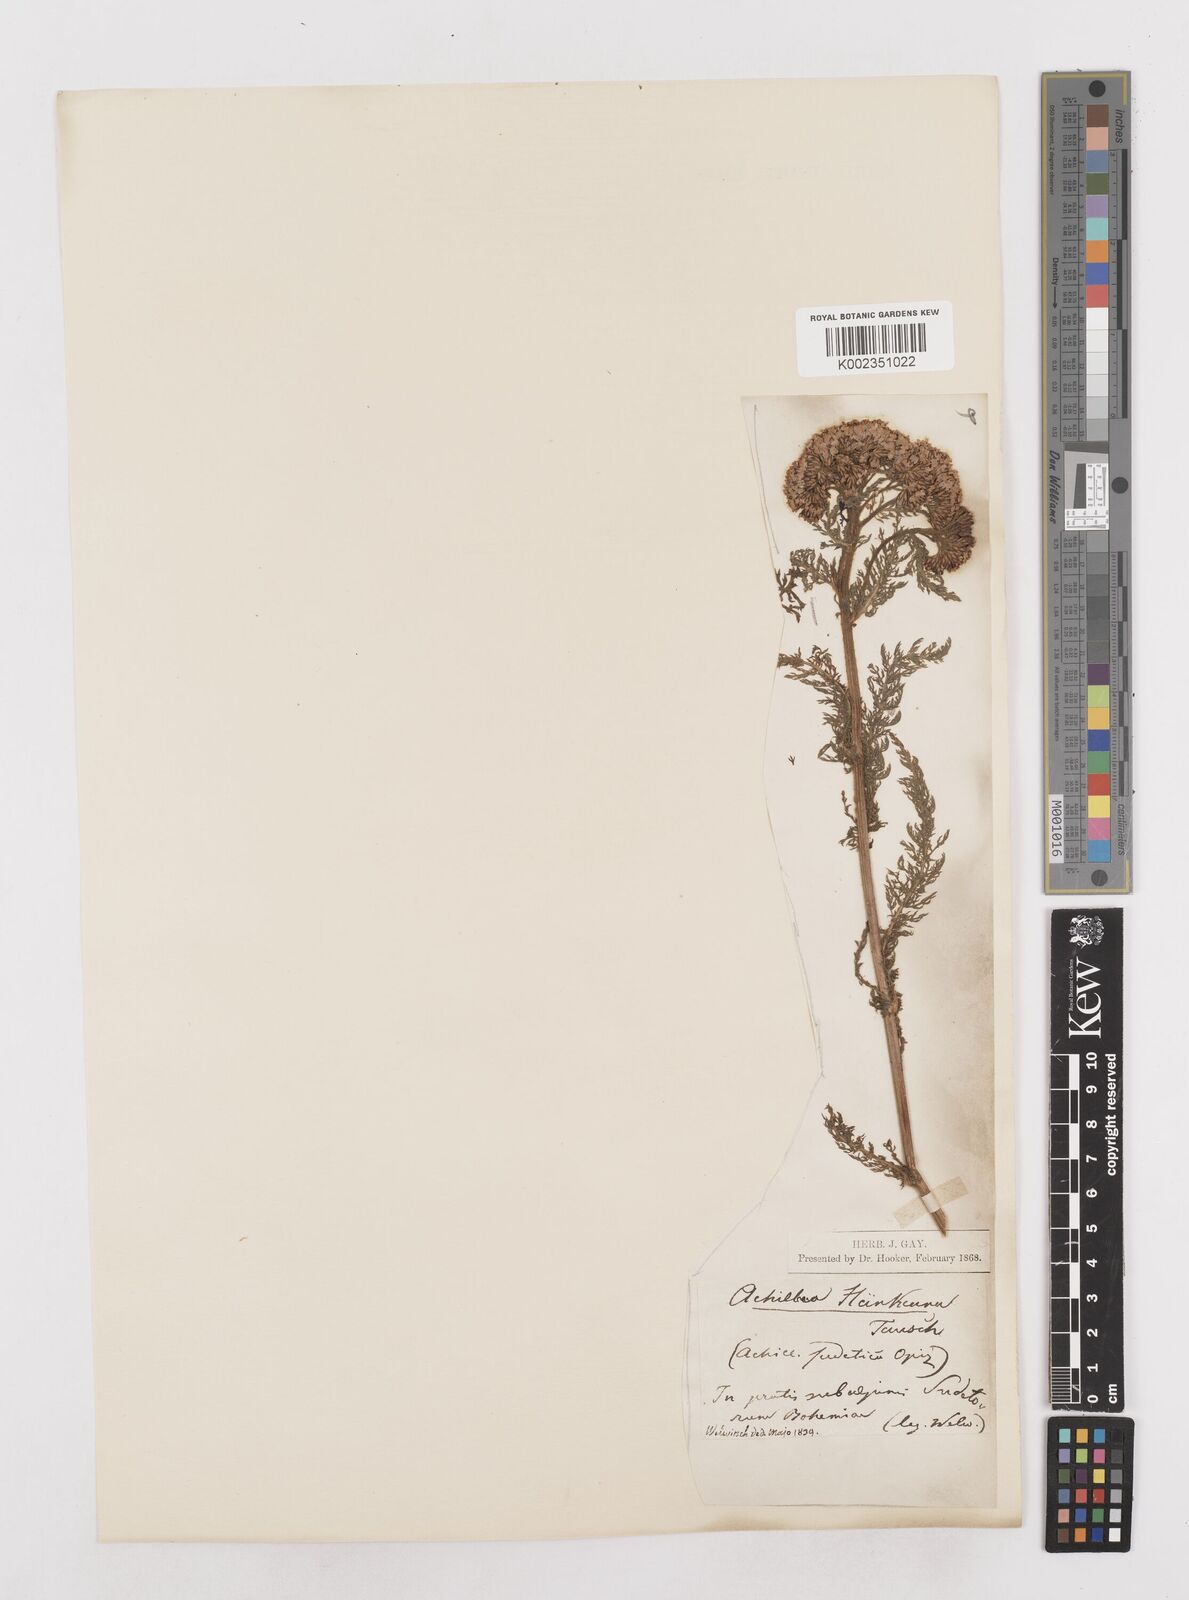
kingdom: Plantae
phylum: Tracheophyta
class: Magnoliopsida
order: Asterales
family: Asteraceae
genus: Achillea
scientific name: Achillea millefolium
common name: Yarrow
